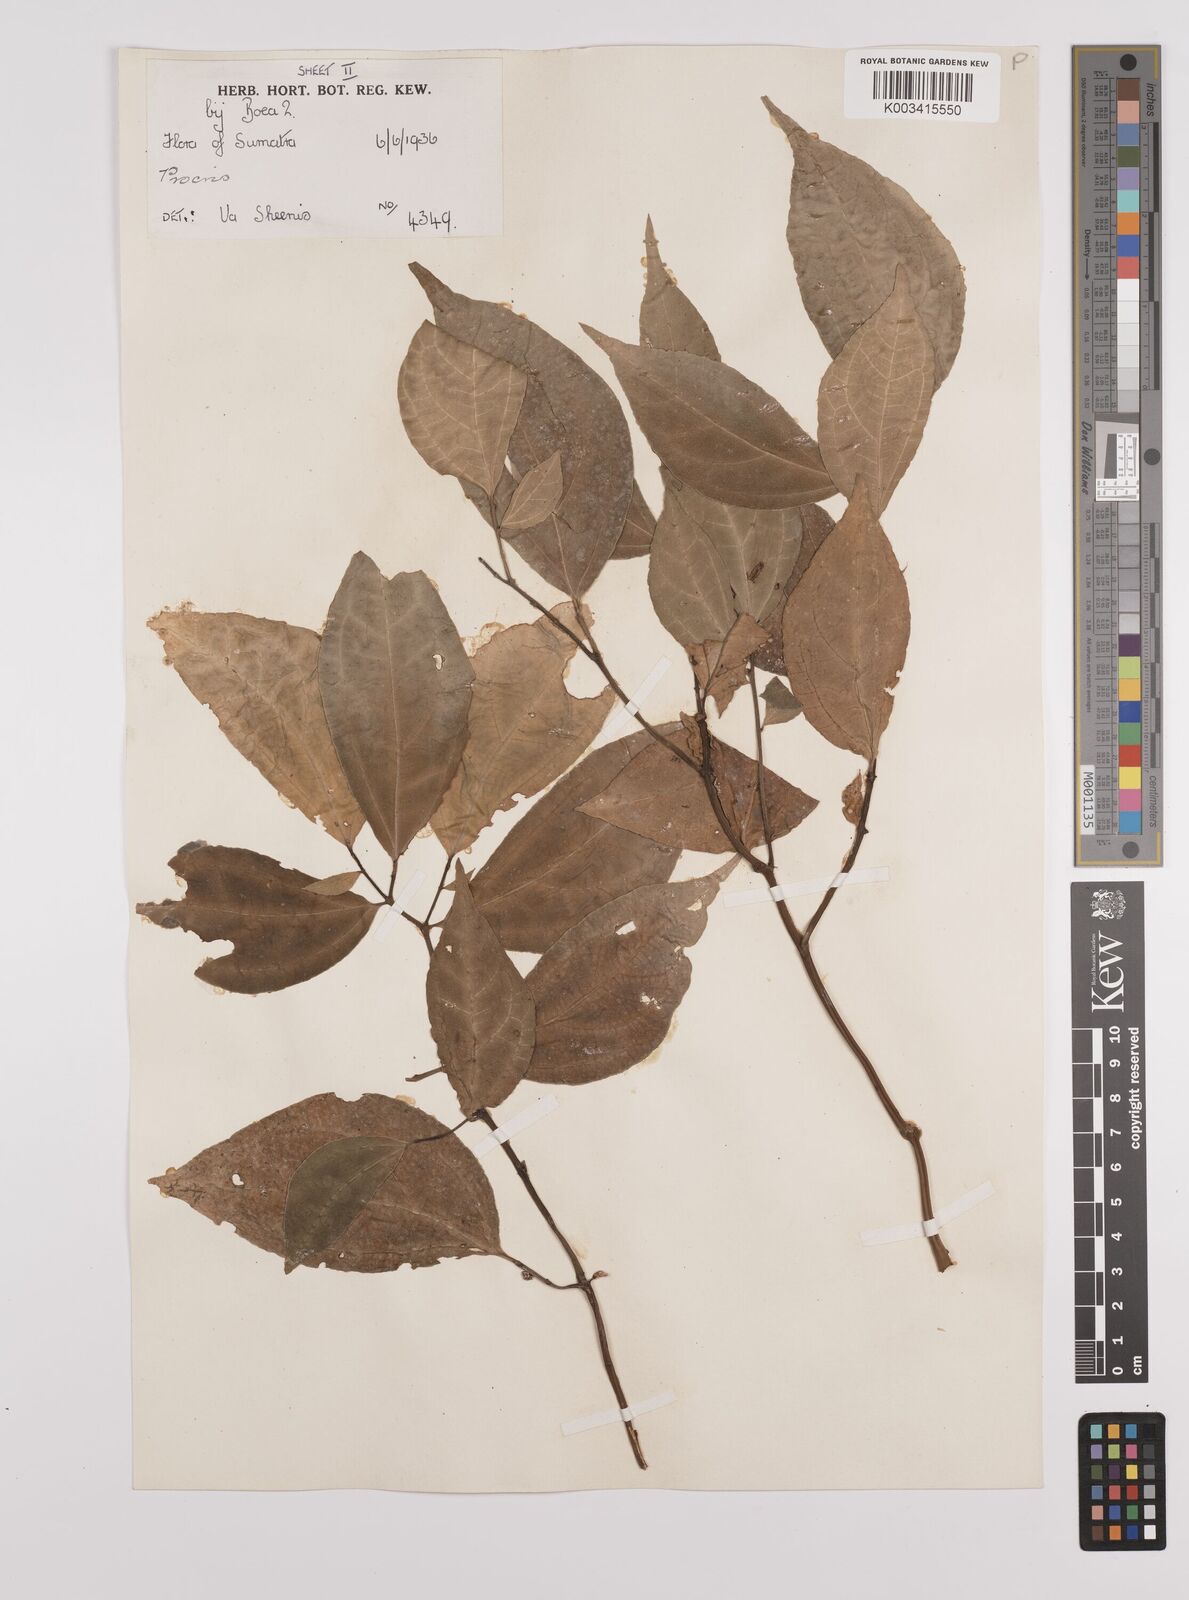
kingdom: Plantae
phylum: Tracheophyta
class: Magnoliopsida
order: Rosales
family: Urticaceae
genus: Elatostema
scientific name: Elatostema
